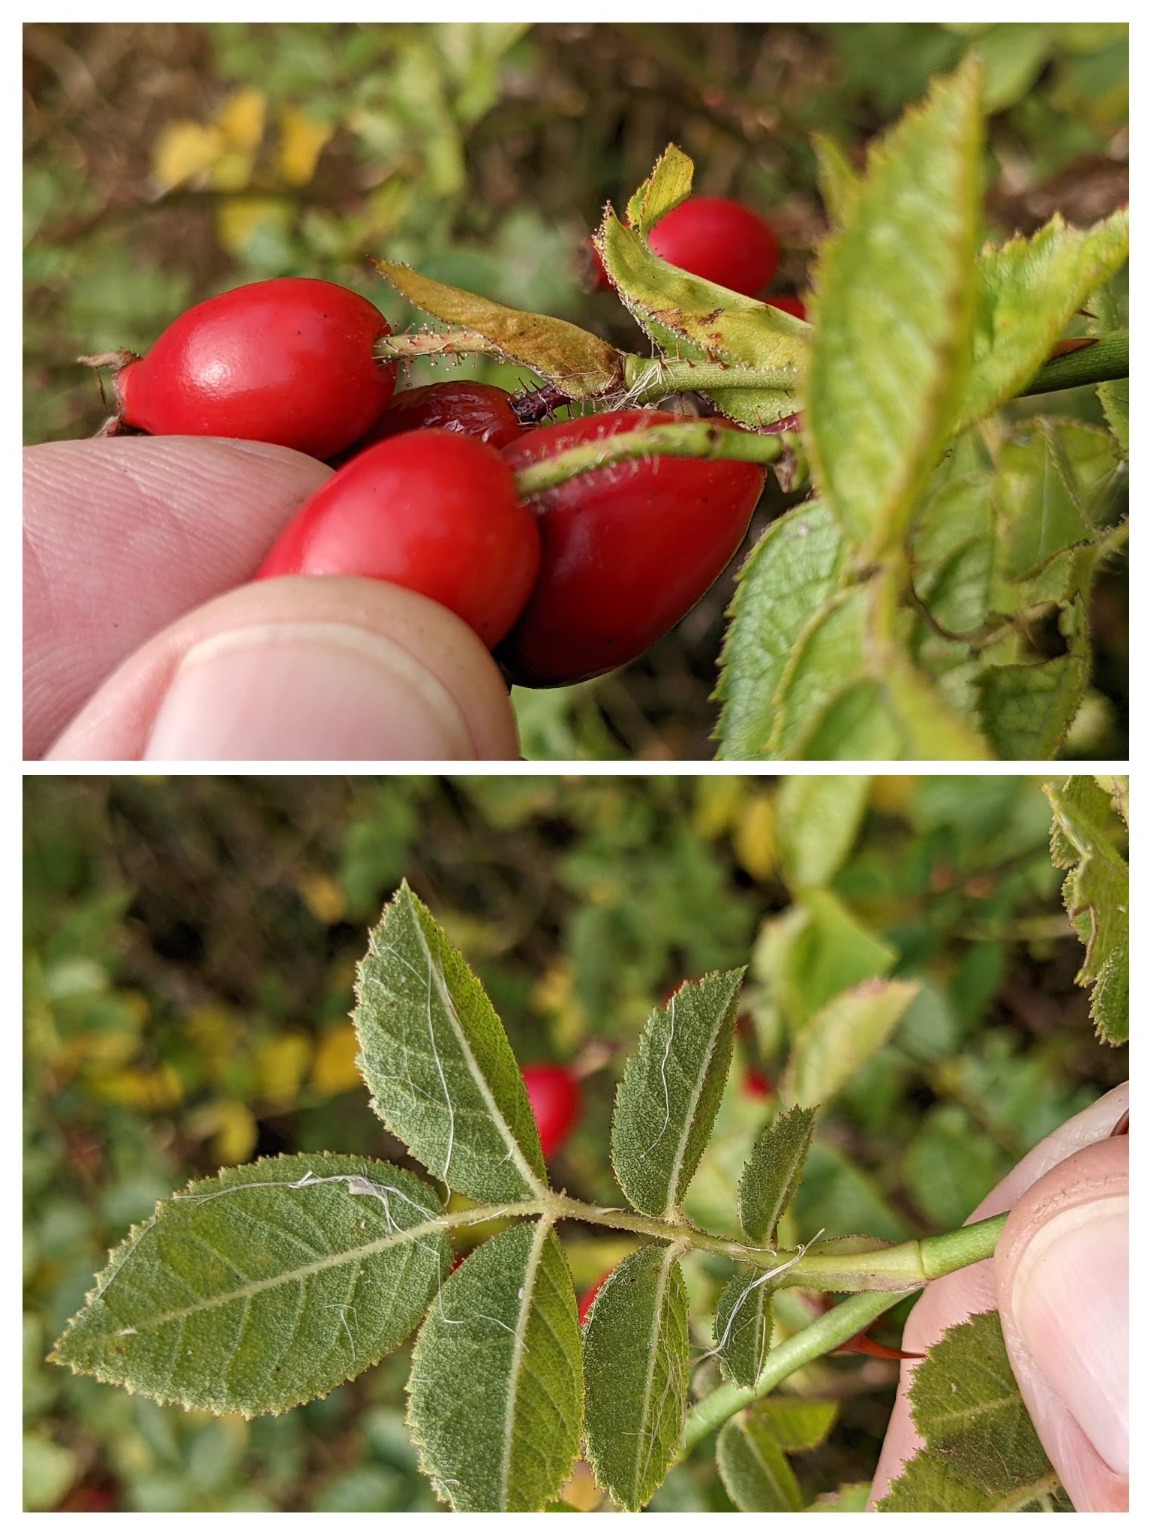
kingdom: Plantae
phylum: Tracheophyta
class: Magnoliopsida
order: Rosales
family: Rosaceae
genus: Rosa
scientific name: Rosa rubiginosa
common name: Æble-rose
